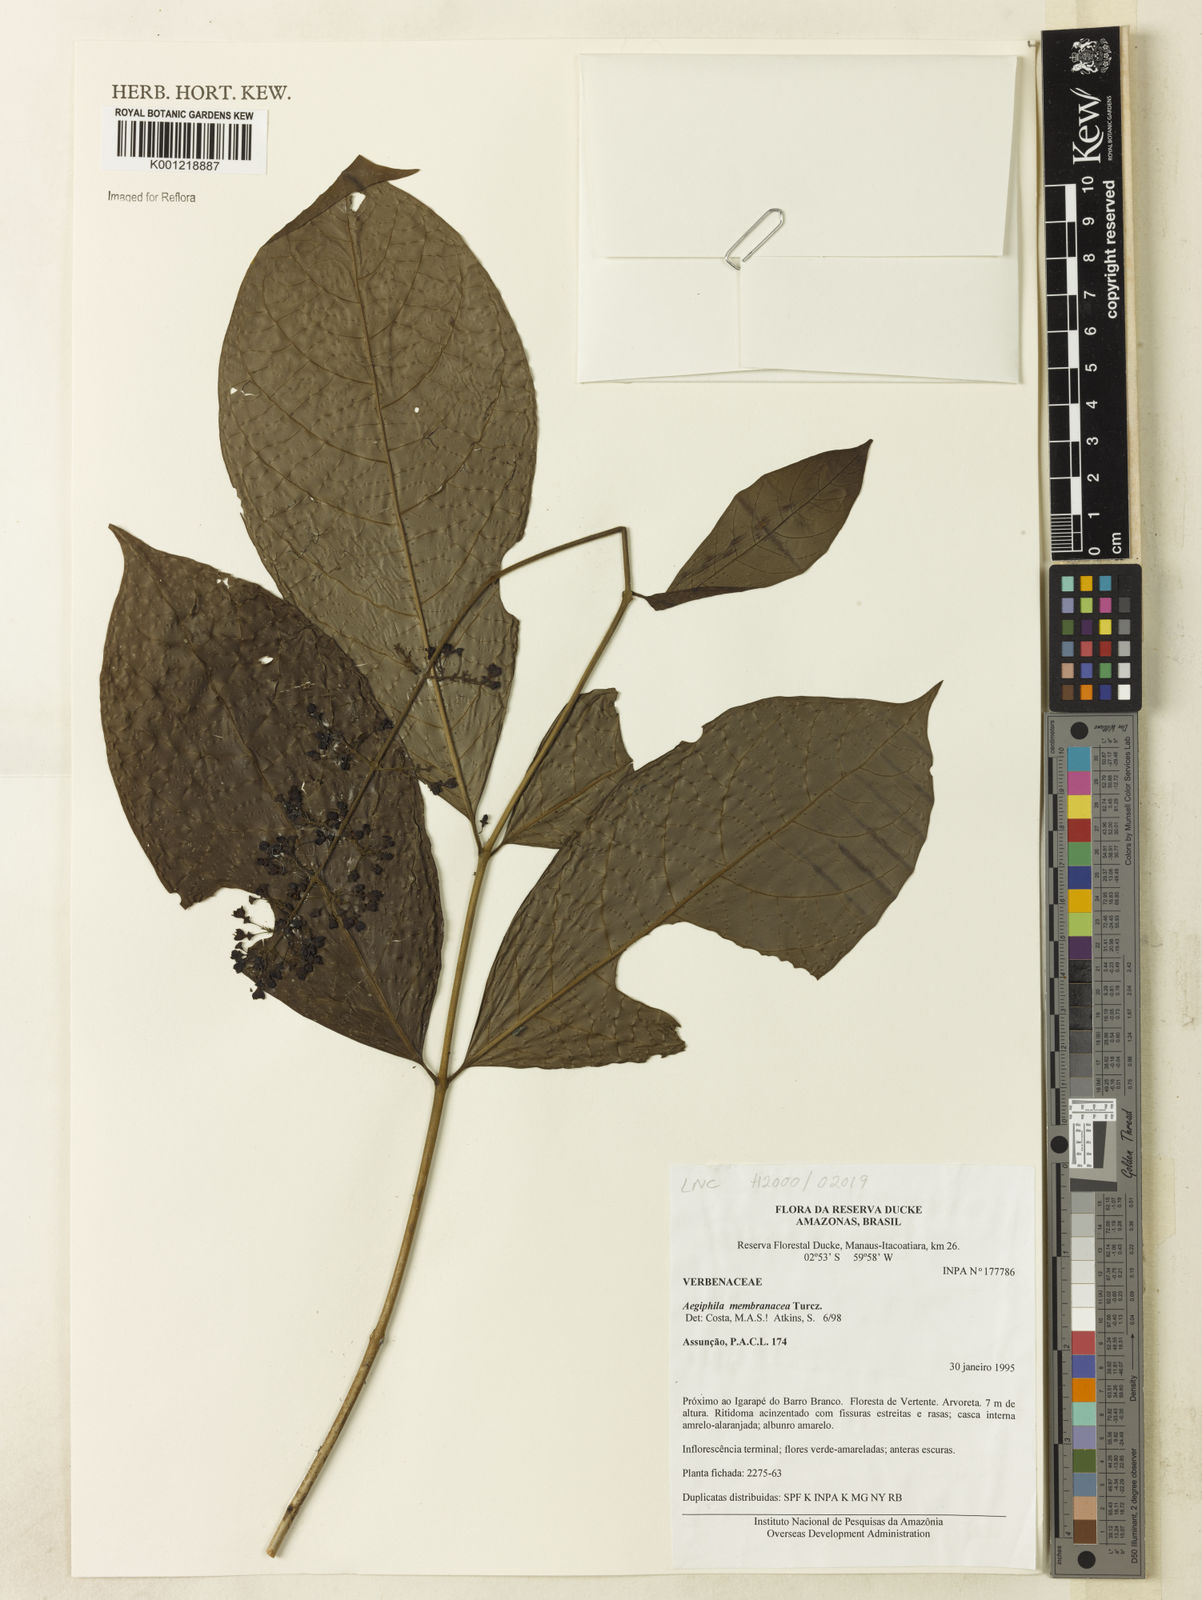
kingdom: Plantae
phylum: Tracheophyta
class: Magnoliopsida
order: Lamiales
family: Lamiaceae
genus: Aegiphila
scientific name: Aegiphila membranacea
